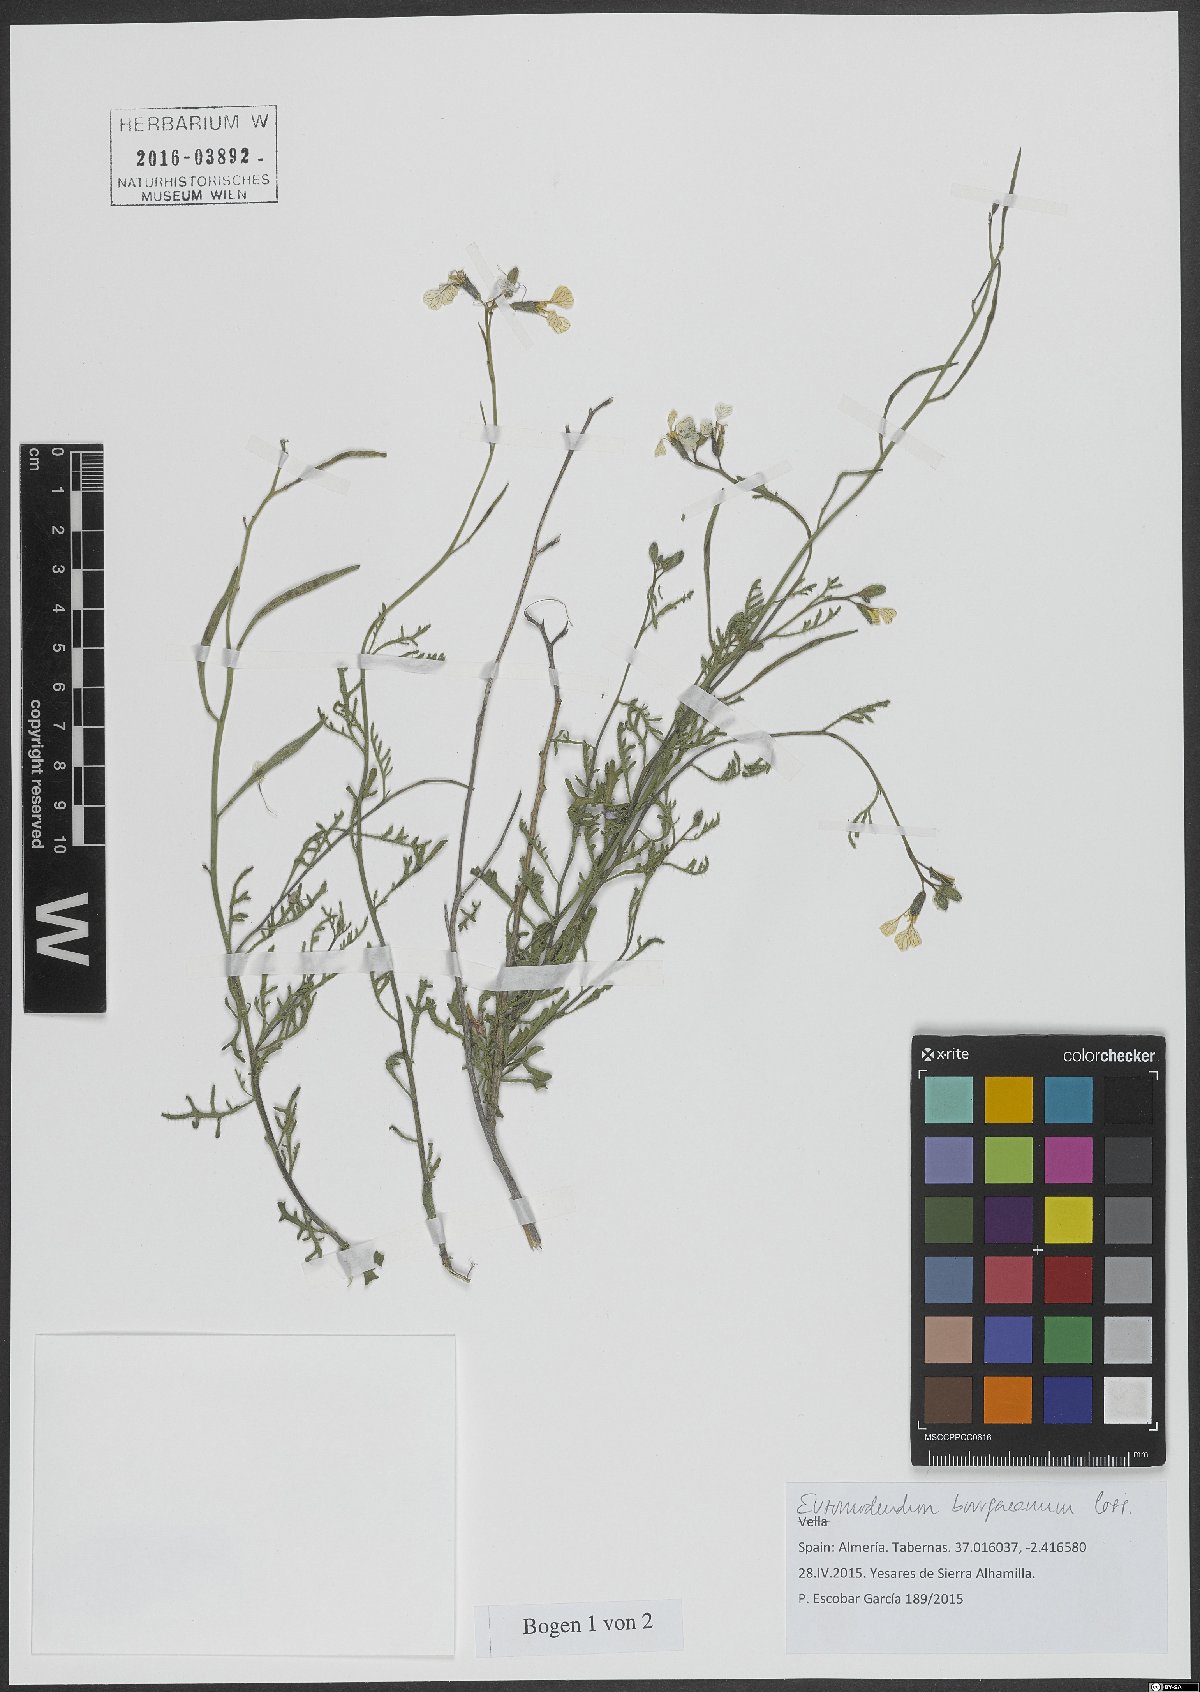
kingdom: Plantae
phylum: Tracheophyta
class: Magnoliopsida
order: Brassicales
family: Brassicaceae
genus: Vella
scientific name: Vella bourgaeana
